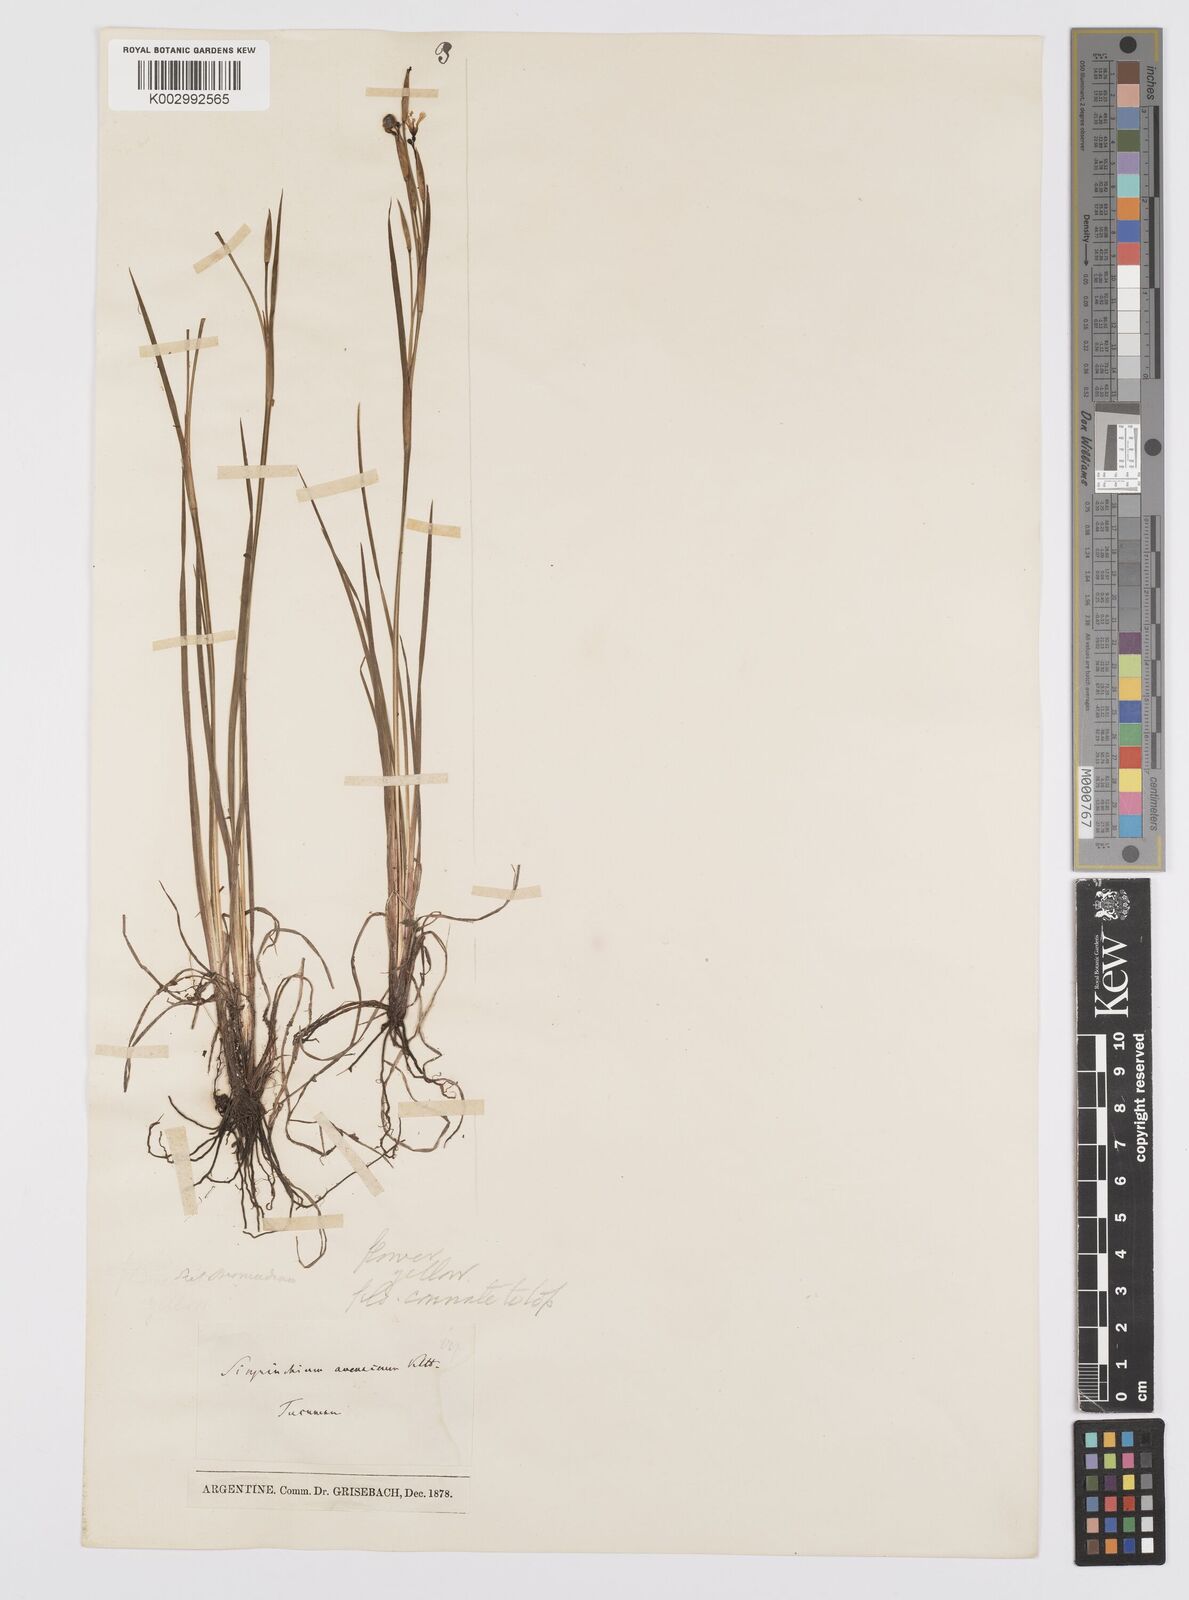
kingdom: Plantae
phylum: Tracheophyta
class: Liliopsida
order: Asparagales
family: Iridaceae
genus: Sisyrinchium
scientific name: Sisyrinchium unguiculatum
